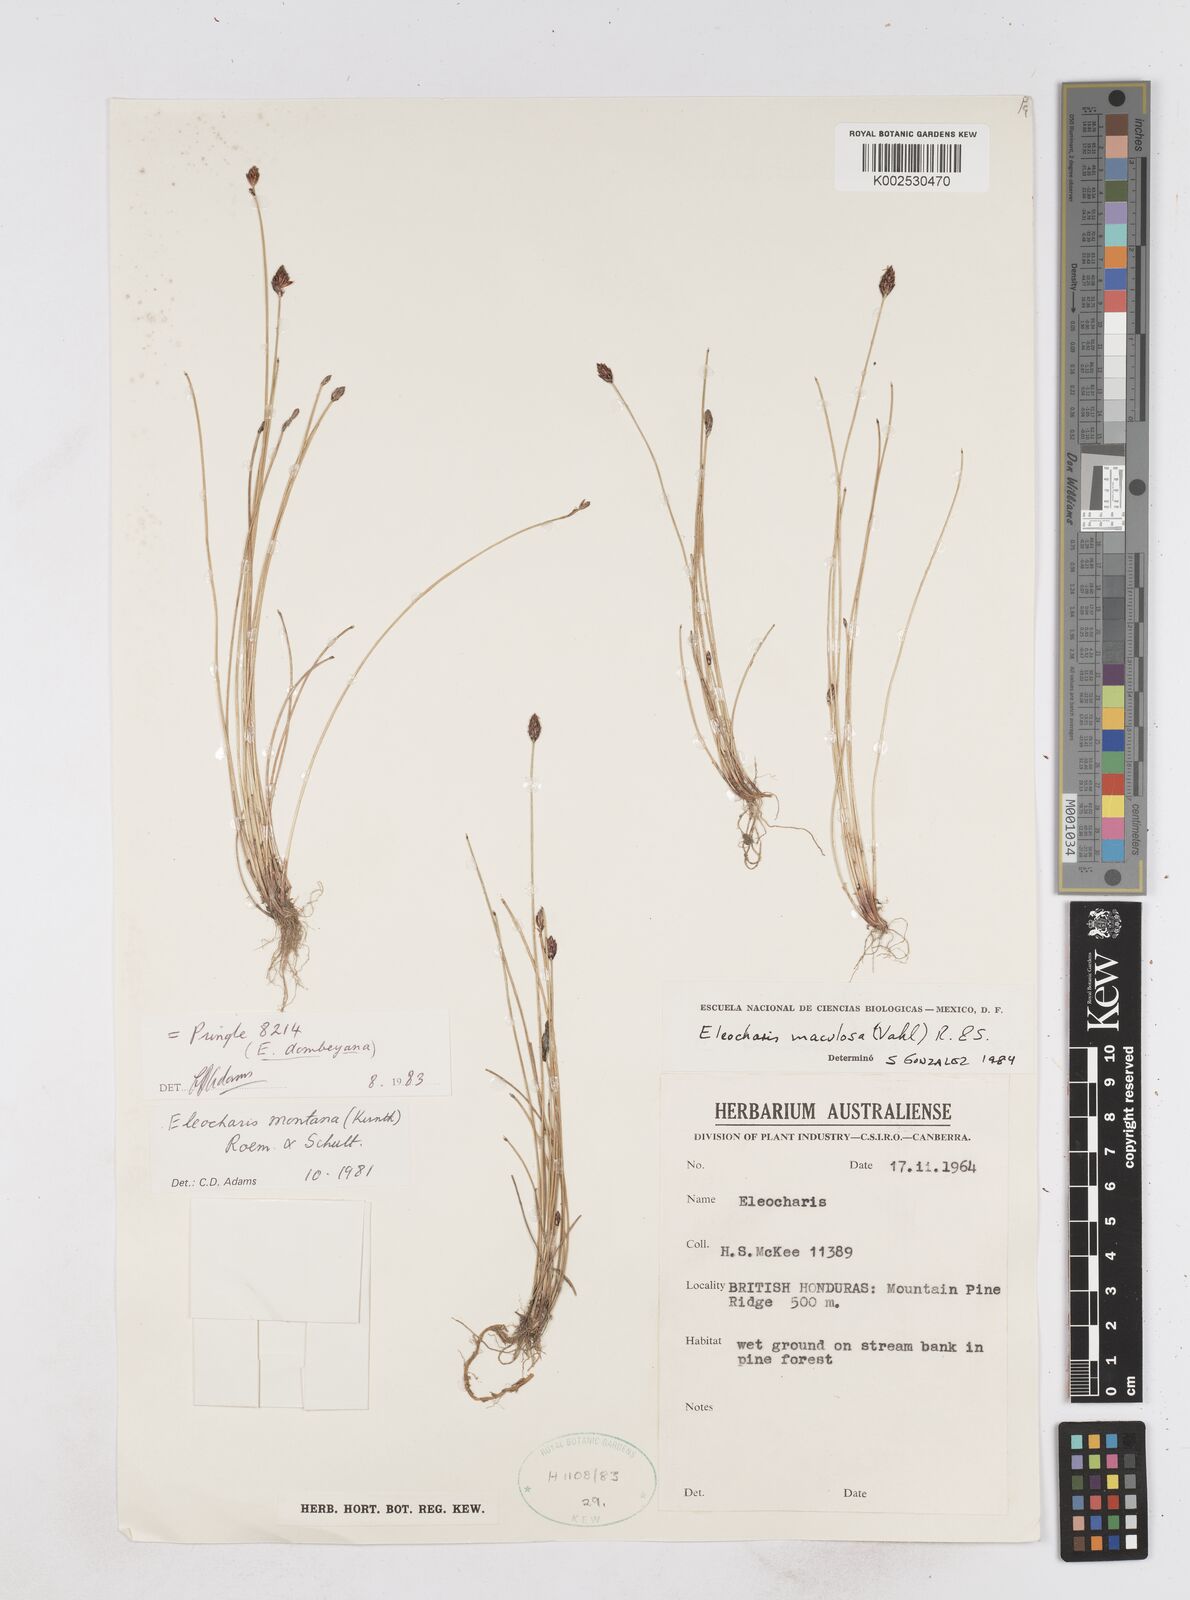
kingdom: Plantae
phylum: Tracheophyta
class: Liliopsida
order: Poales
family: Cyperaceae
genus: Eleocharis
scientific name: Eleocharis maculosa
